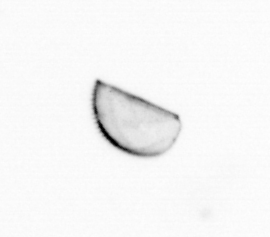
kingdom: Chromista
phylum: Ochrophyta
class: Bacillariophyceae
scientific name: Bacillariophyceae
